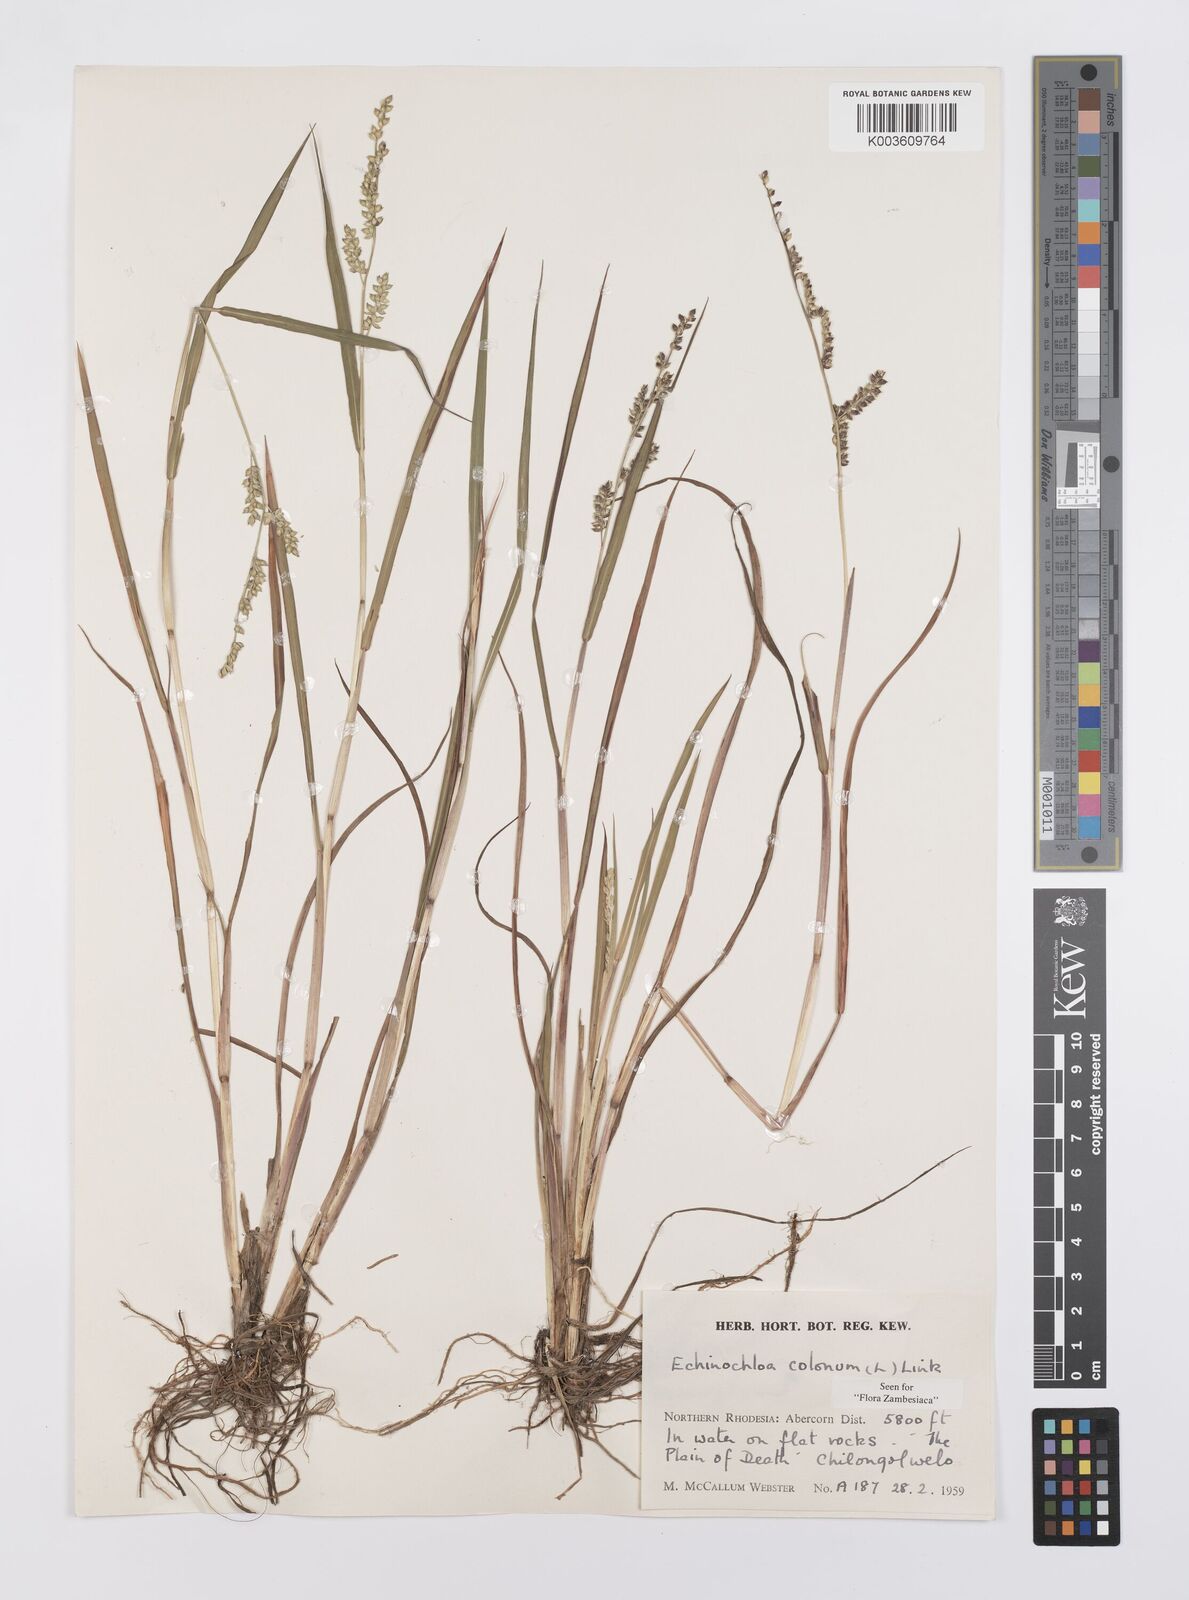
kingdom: Plantae
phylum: Tracheophyta
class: Liliopsida
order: Poales
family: Poaceae
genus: Echinochloa
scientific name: Echinochloa colonum
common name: Jungle rice
